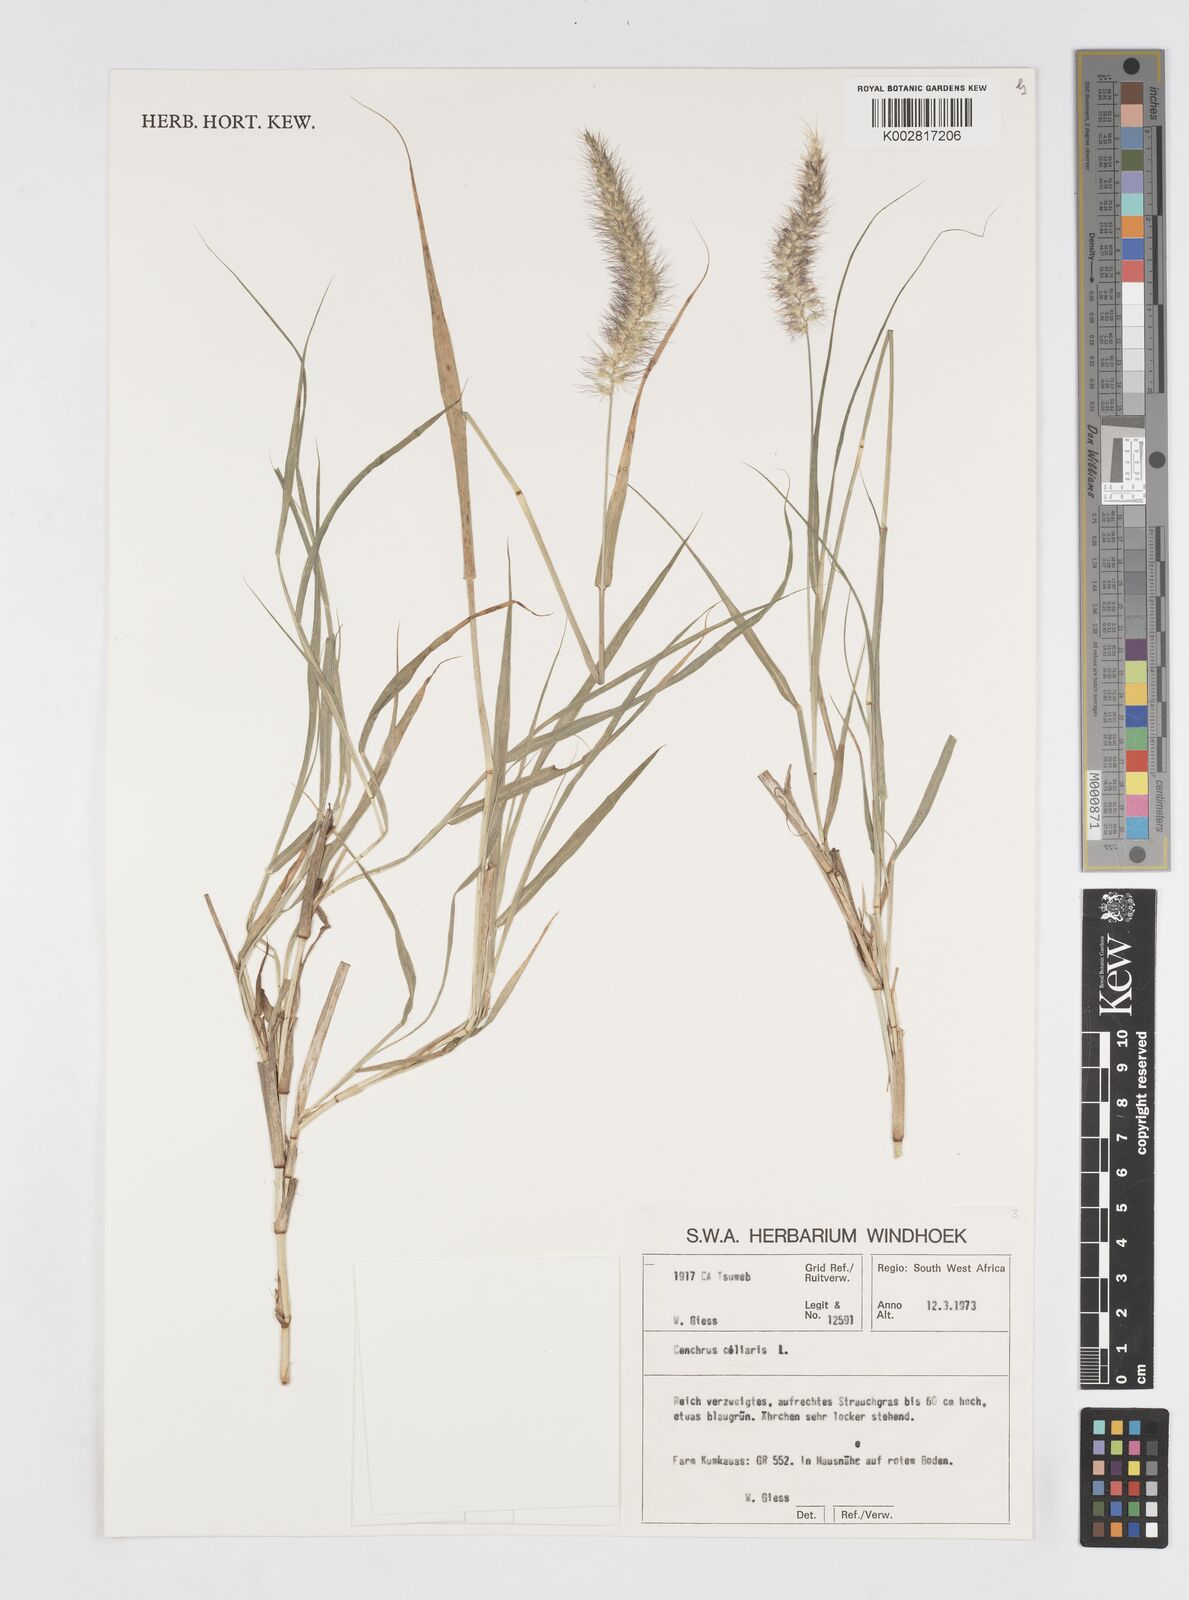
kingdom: Plantae
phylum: Tracheophyta
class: Liliopsida
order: Poales
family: Poaceae
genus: Cenchrus
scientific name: Cenchrus ciliaris
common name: Buffelgrass
